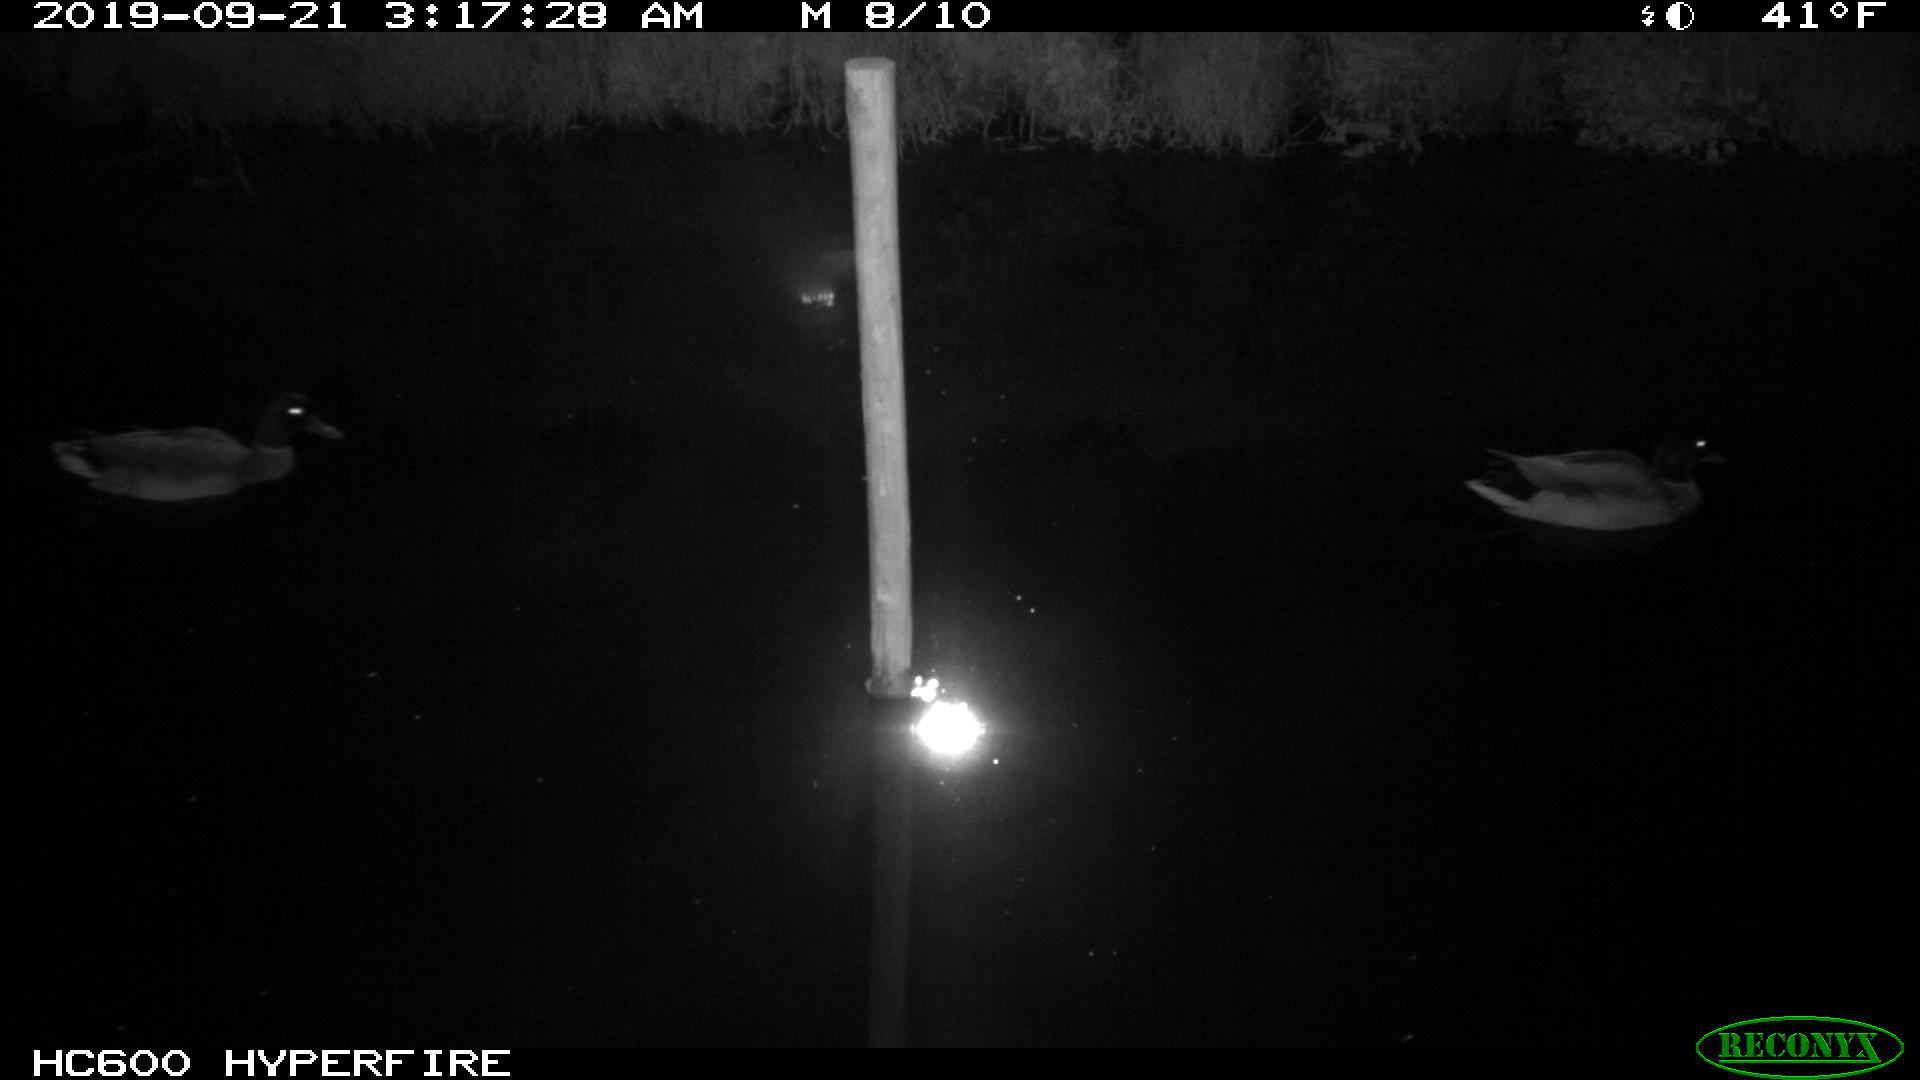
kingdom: Animalia
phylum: Chordata
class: Aves
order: Anseriformes
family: Anatidae
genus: Anas
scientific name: Anas platyrhynchos
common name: Mallard
